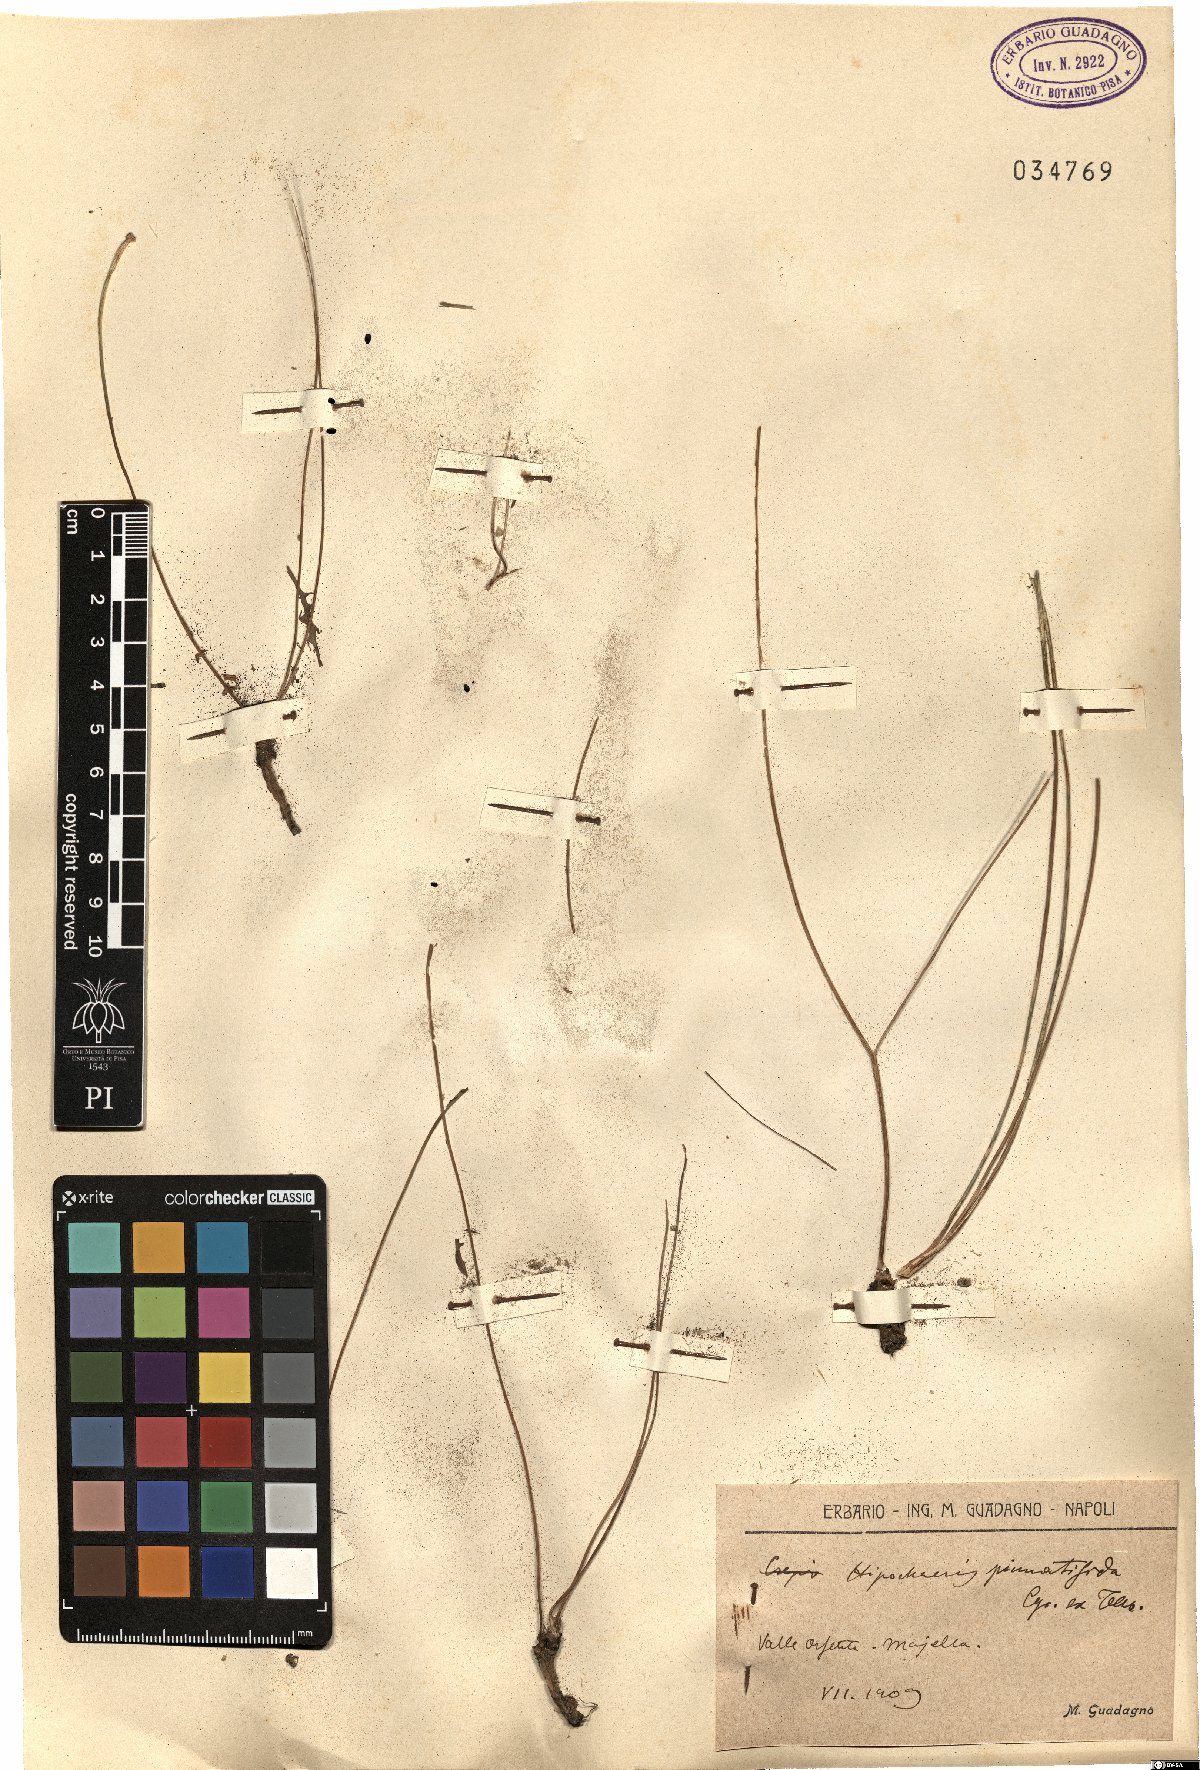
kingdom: Plantae
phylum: Tracheophyta
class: Magnoliopsida
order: Asterales
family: Asteraceae
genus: Hypochaeris
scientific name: Hypochaeris cretensis
